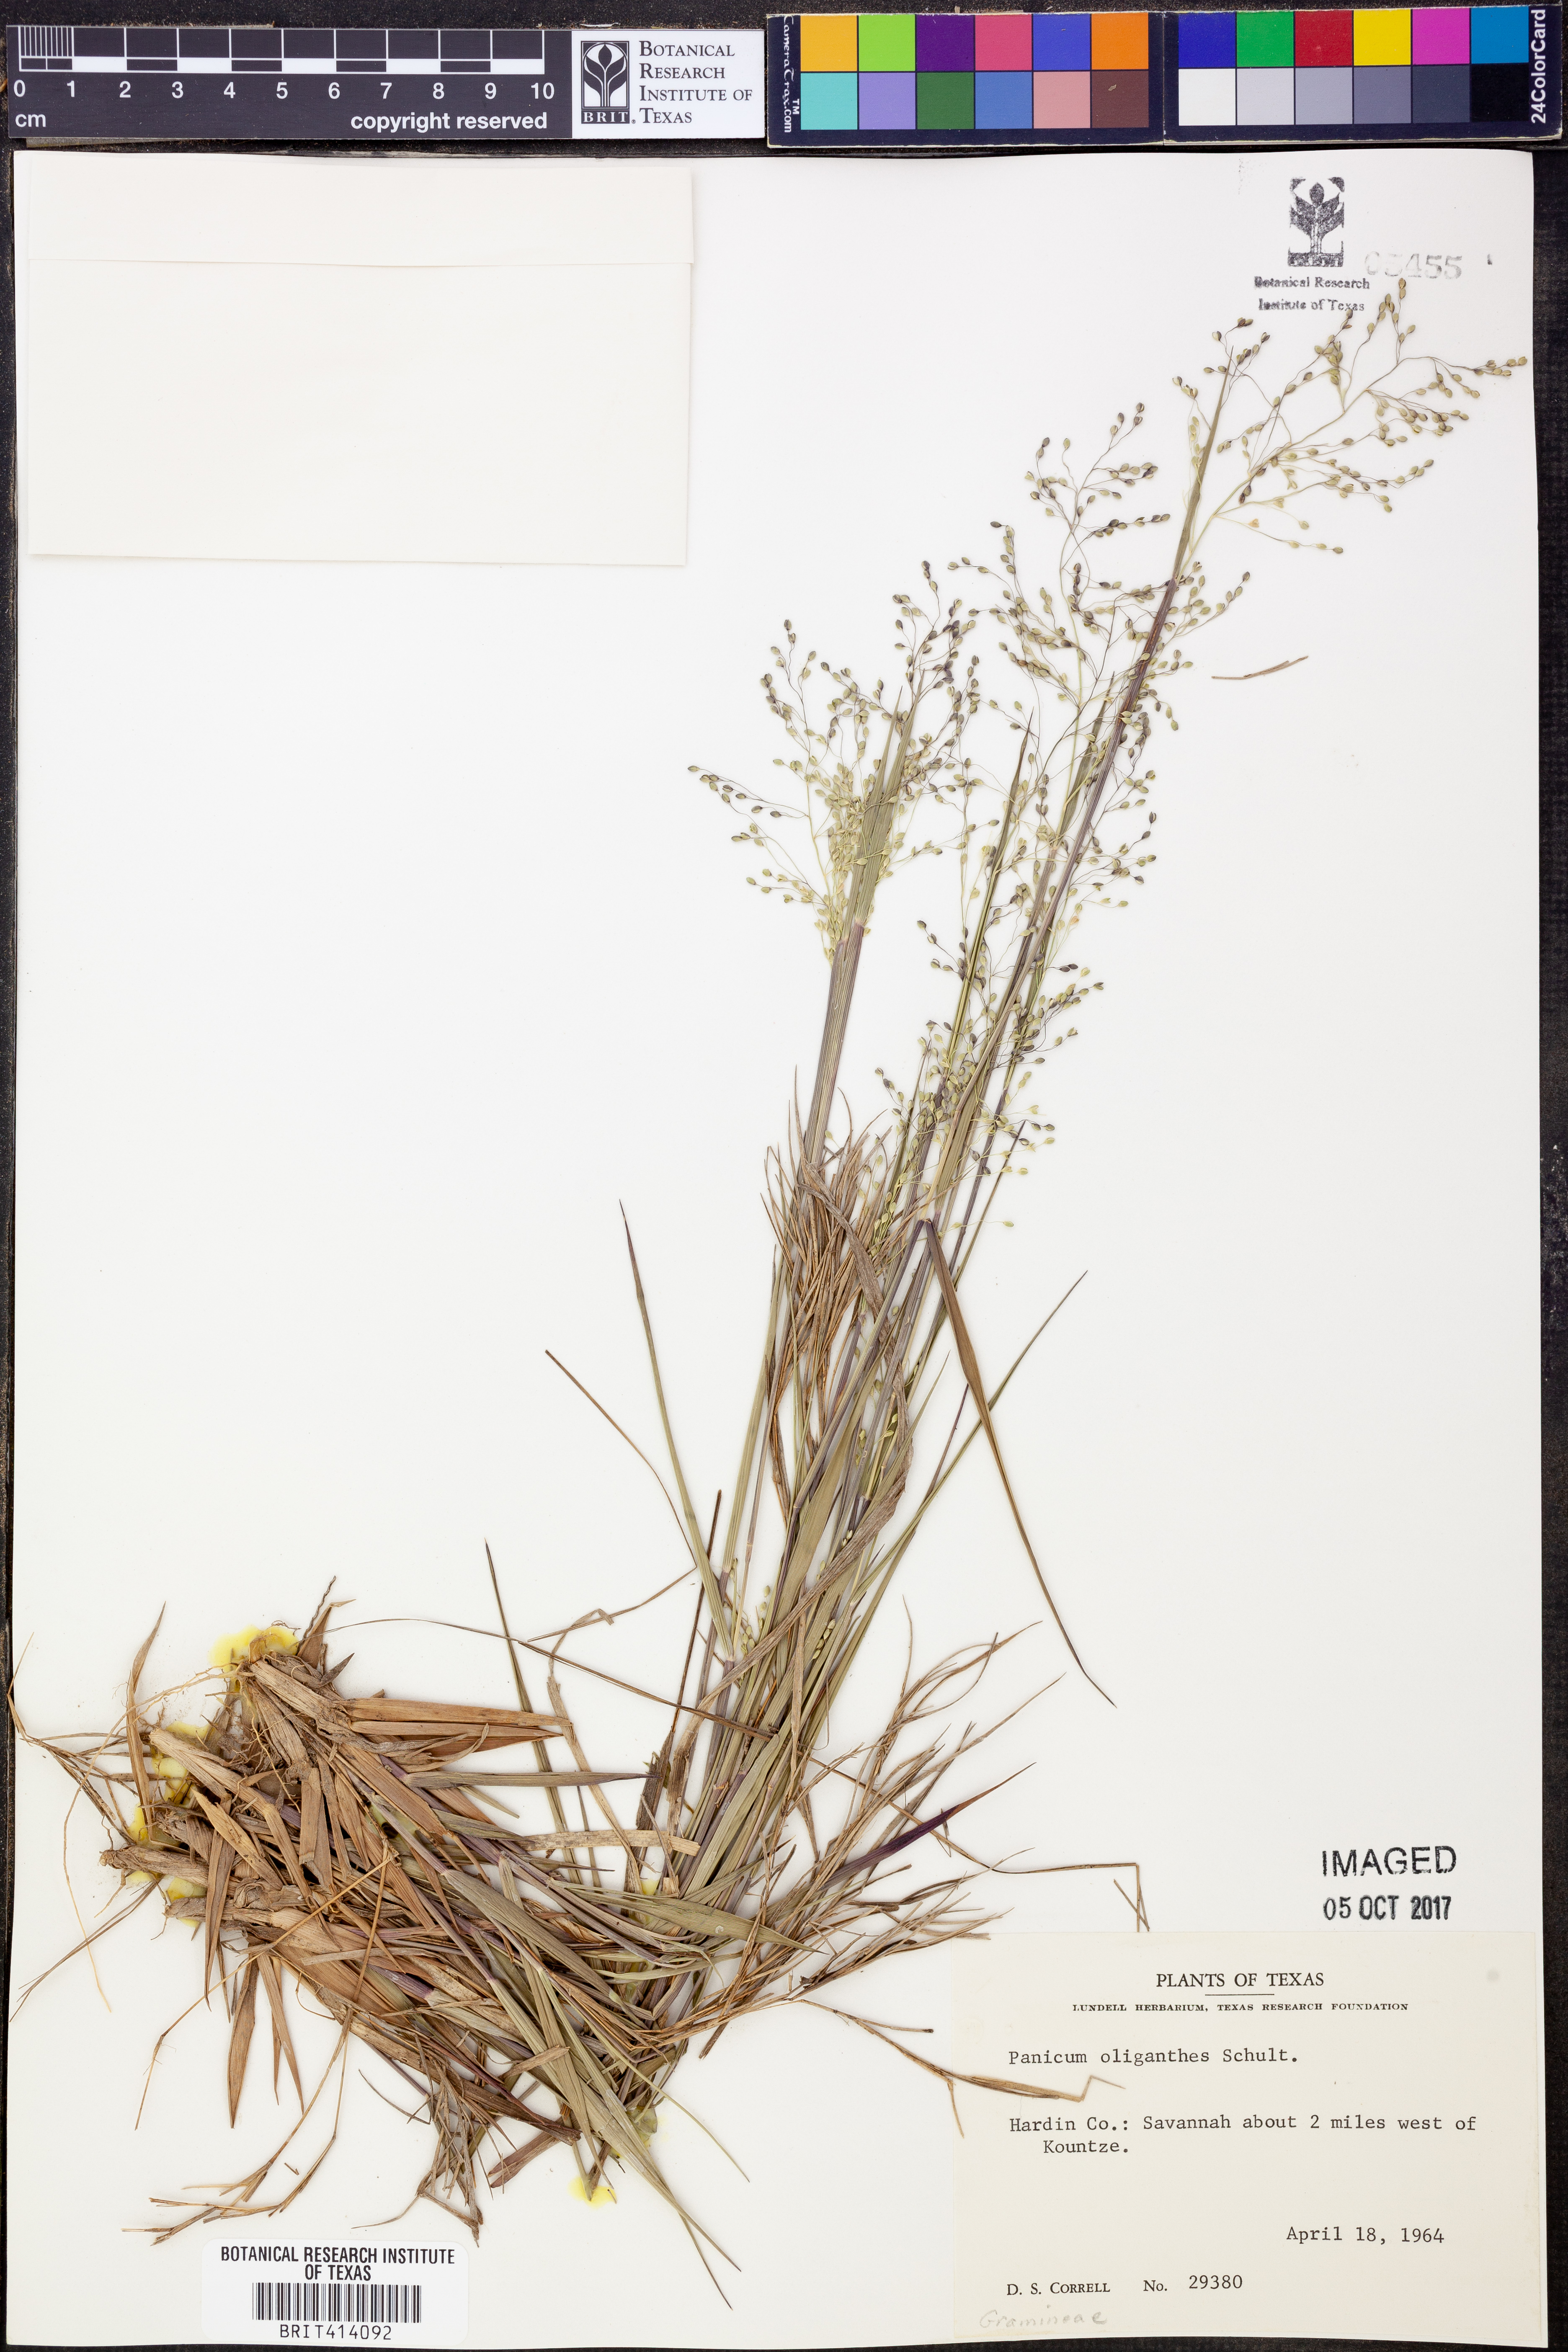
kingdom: Plantae
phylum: Tracheophyta
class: Liliopsida
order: Poales
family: Poaceae
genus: Dichanthelium
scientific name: Dichanthelium oligosanthes
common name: Few-anther obscuregrass
